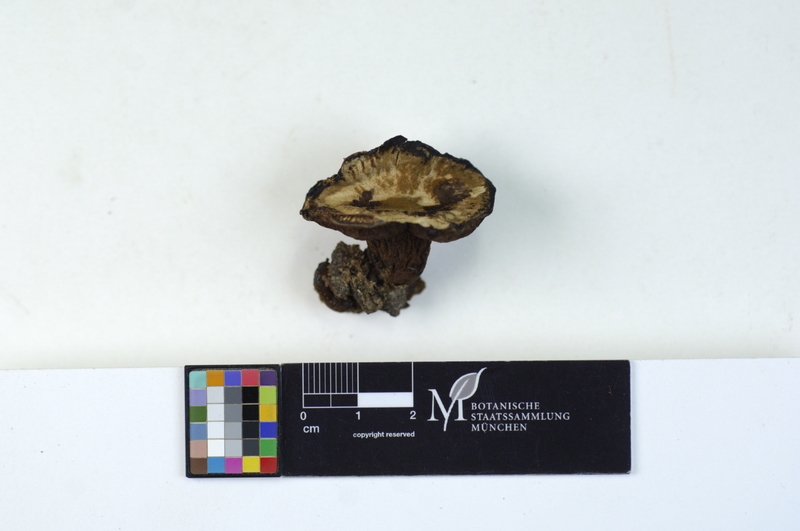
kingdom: Fungi
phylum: Basidiomycota
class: Agaricomycetes
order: Polyporales
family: Ischnodermataceae
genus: Ischnoderma
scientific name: Ischnoderma benzoinum
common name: Benzoin bracket
